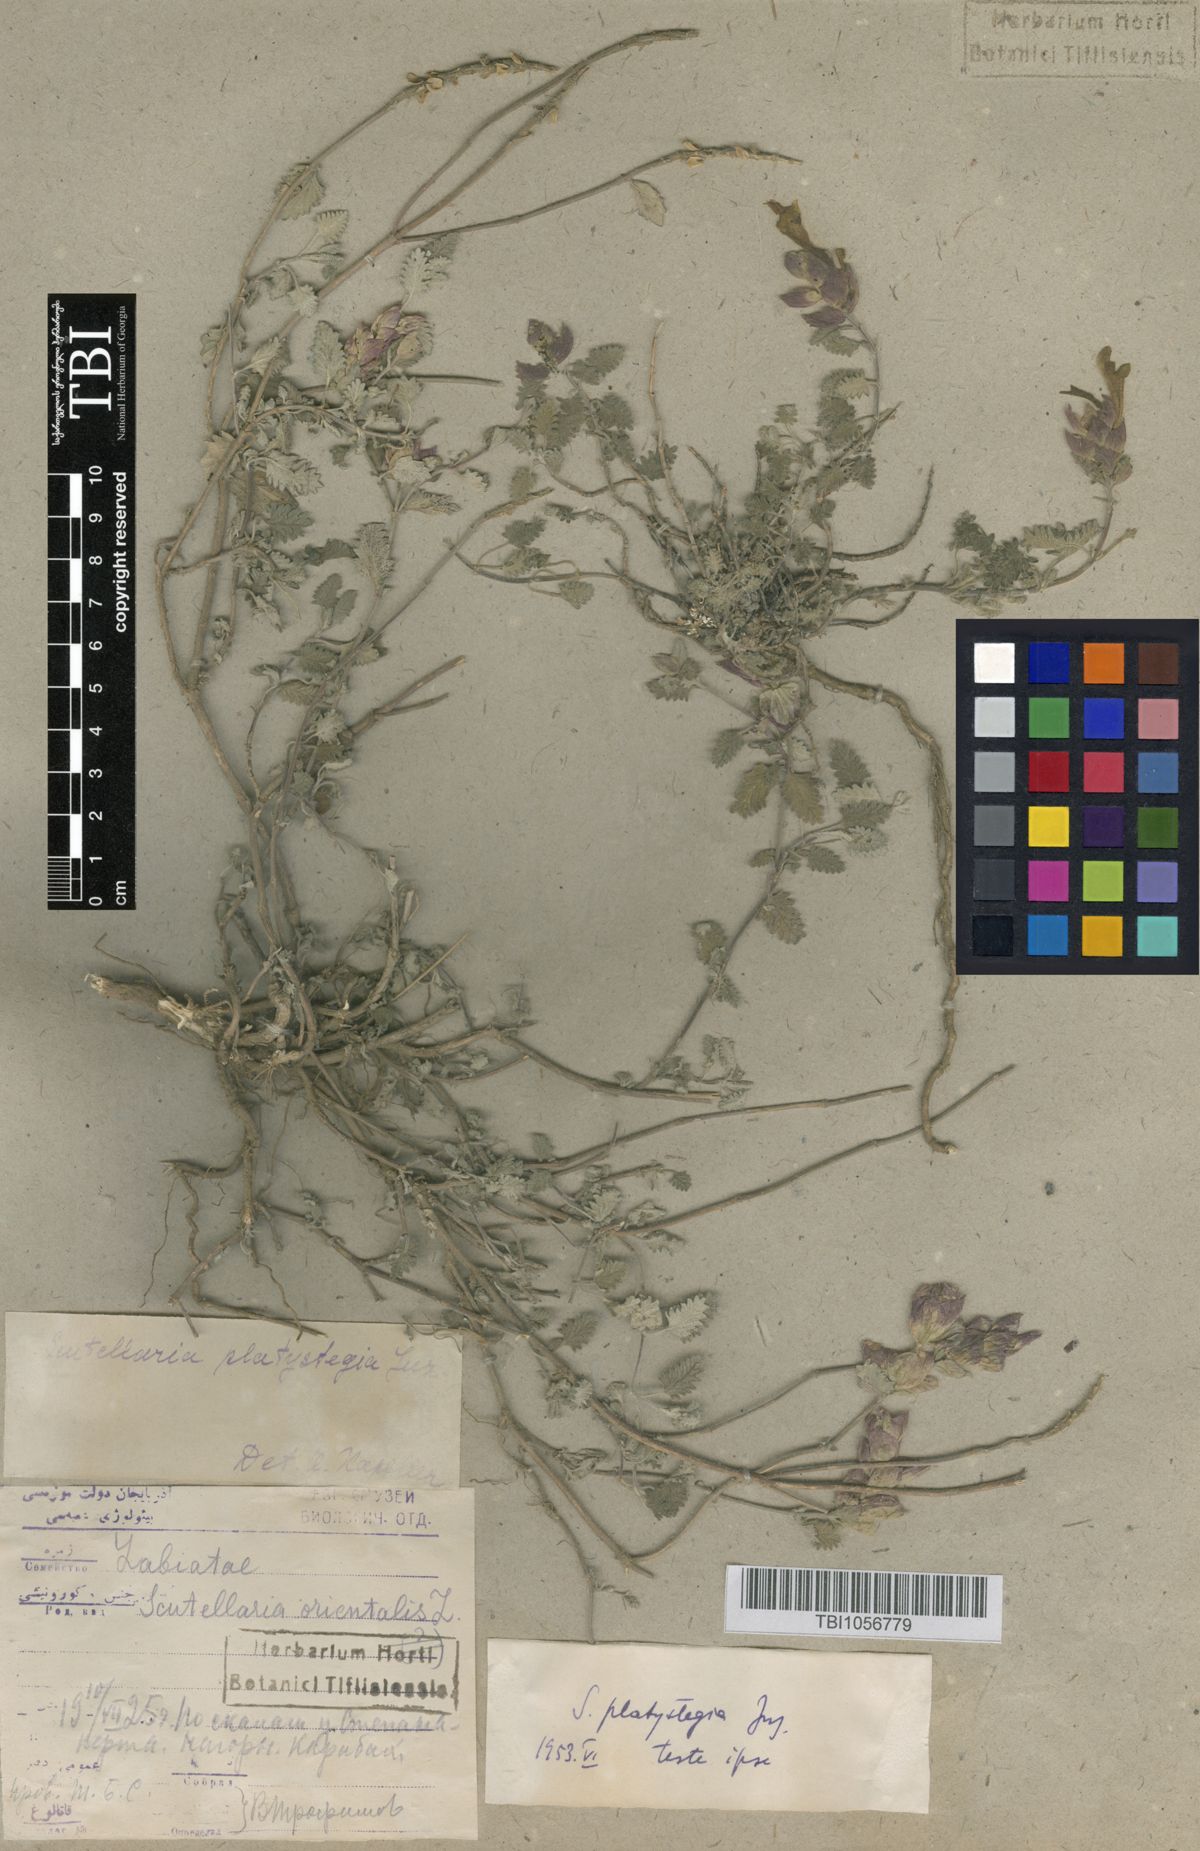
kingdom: Plantae
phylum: Tracheophyta
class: Magnoliopsida
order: Lamiales
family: Lamiaceae
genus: Scutellaria
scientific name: Scutellaria platystegia
